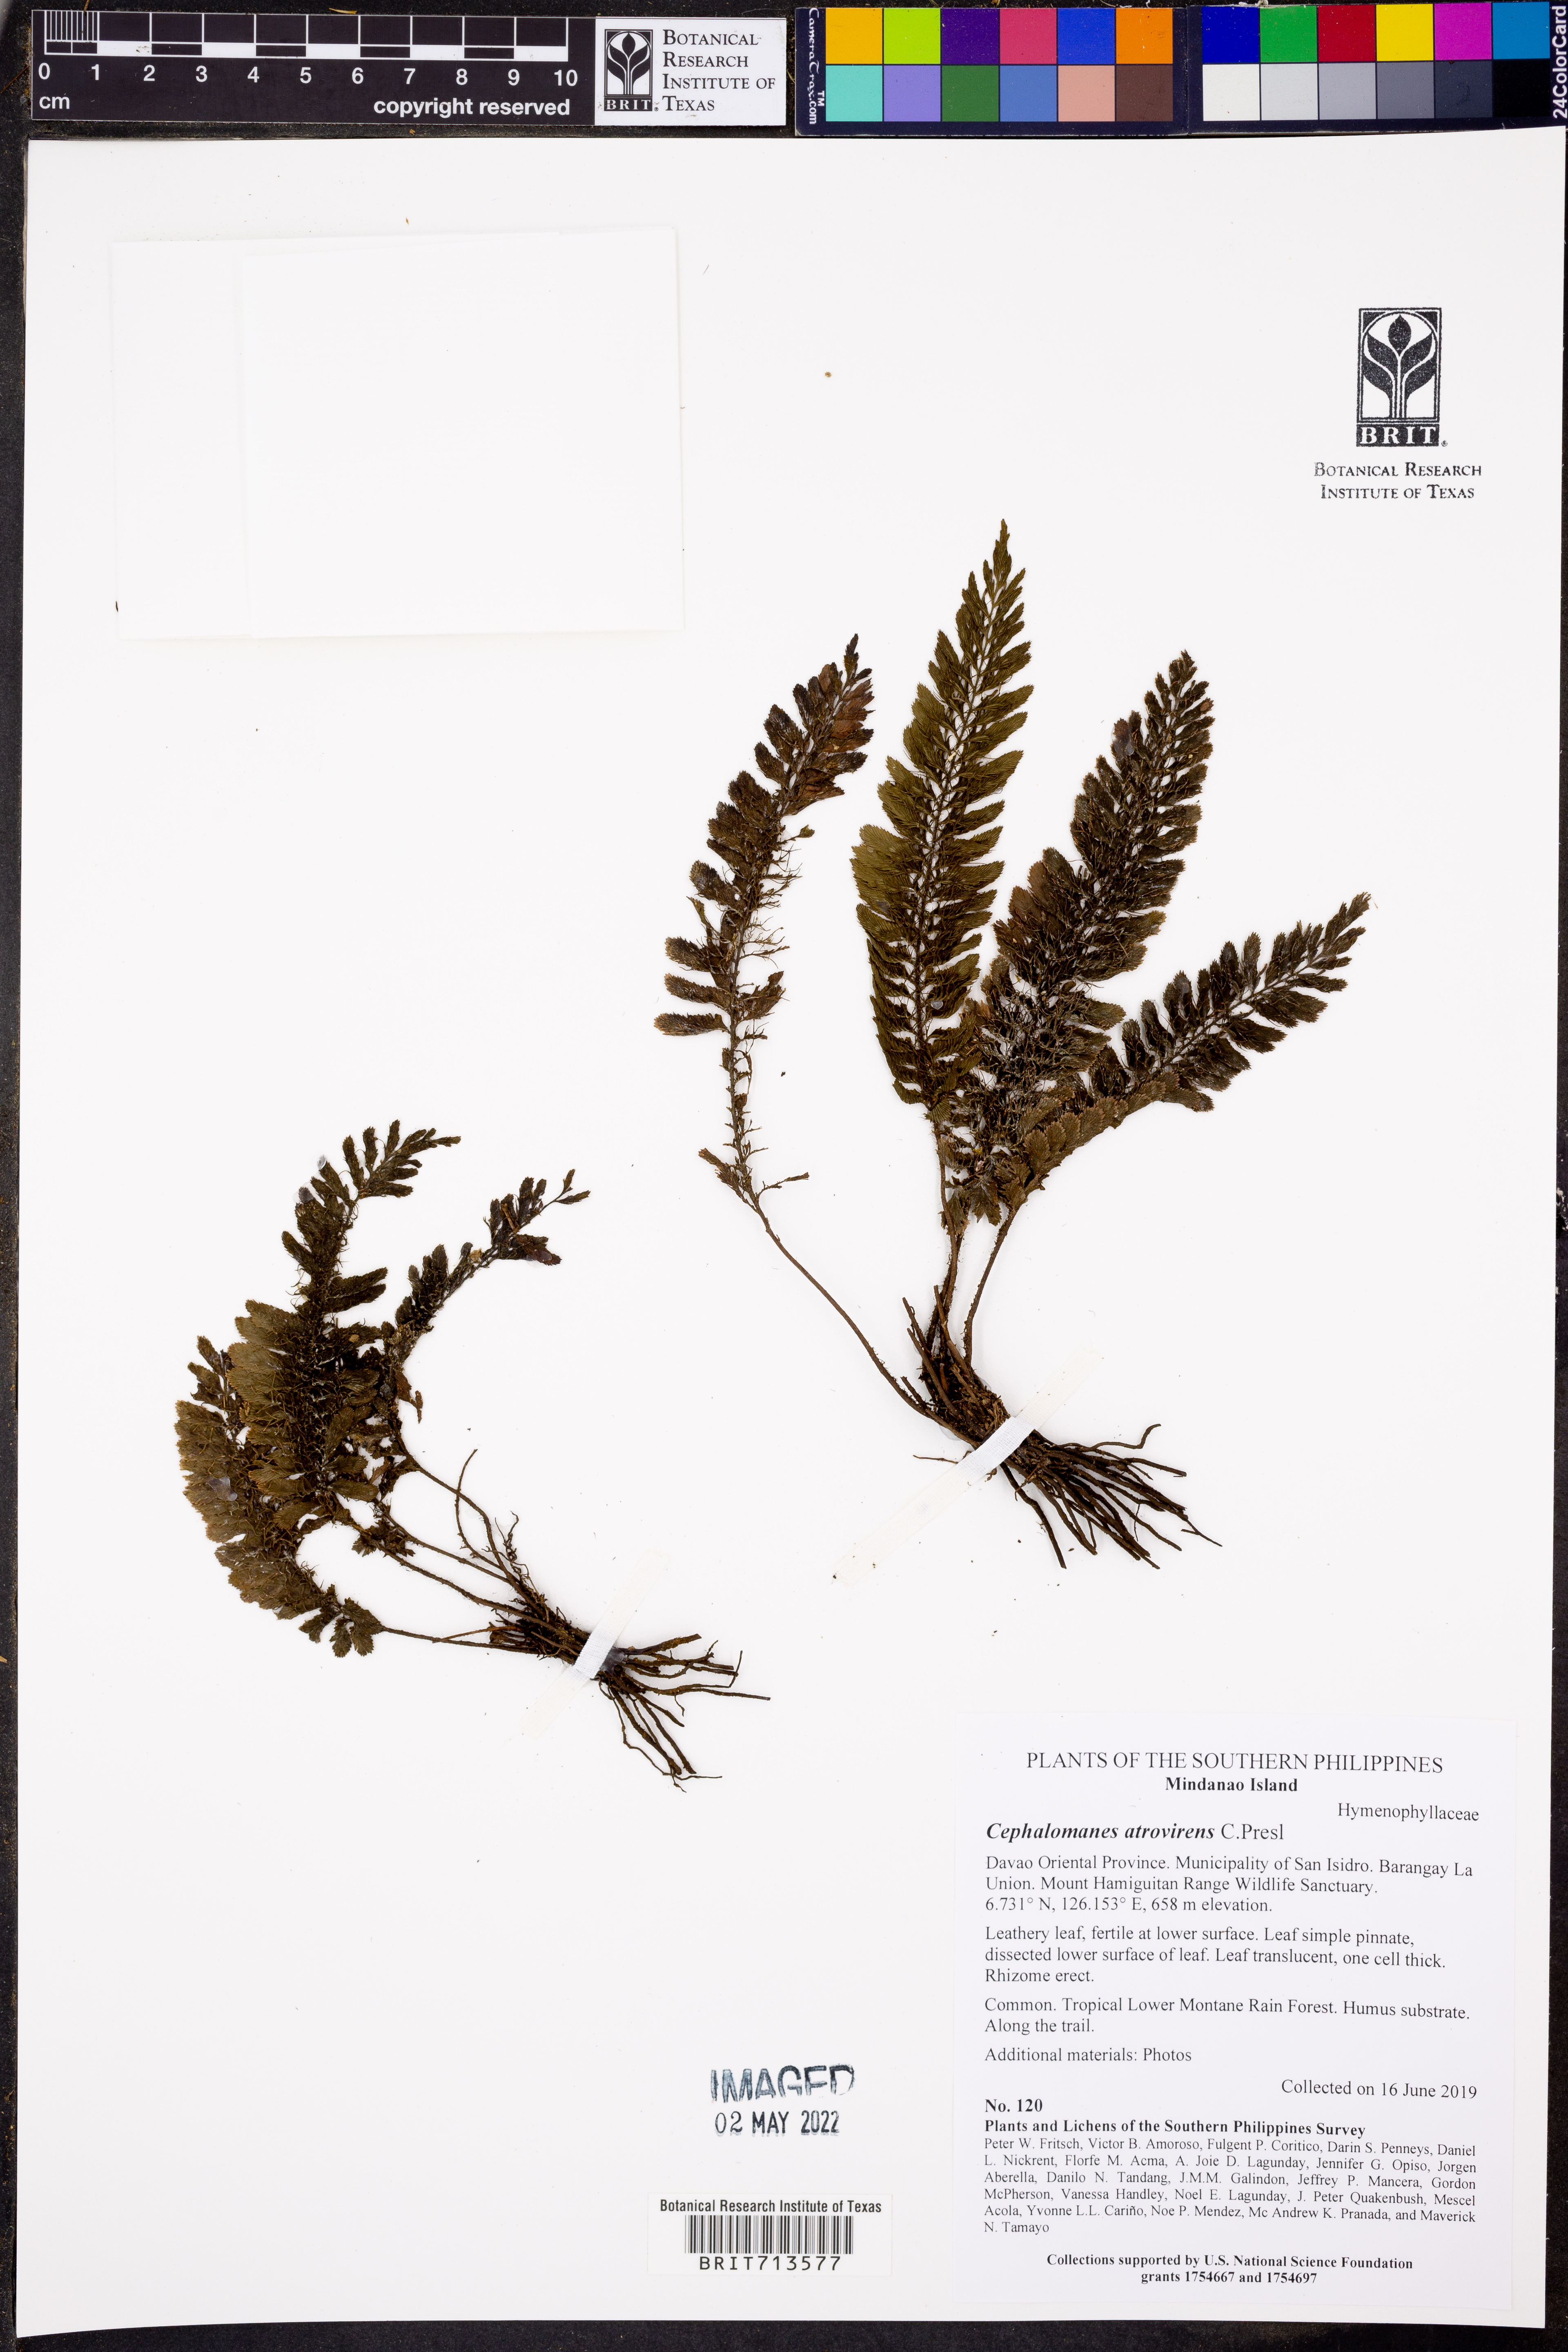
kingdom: Plantae
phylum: Tracheophyta
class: Polypodiopsida
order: Hymenophyllales
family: Hymenophyllaceae
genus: Cephalomanes
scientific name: Cephalomanes atrovirens
